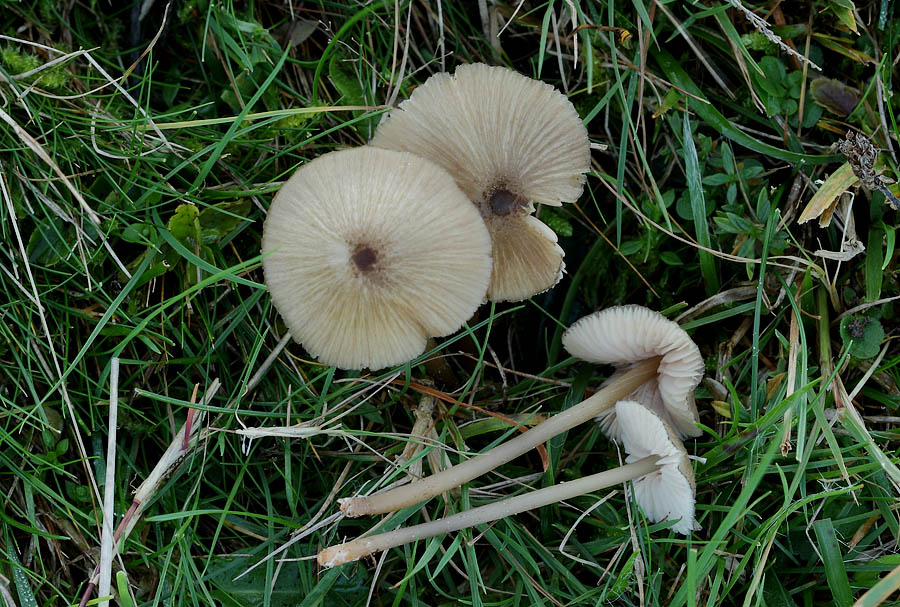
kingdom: Fungi
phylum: Basidiomycota
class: Agaricomycetes
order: Agaricales
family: Entolomataceae
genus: Entoloma
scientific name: Entoloma exile
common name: rødplettet rødblad
